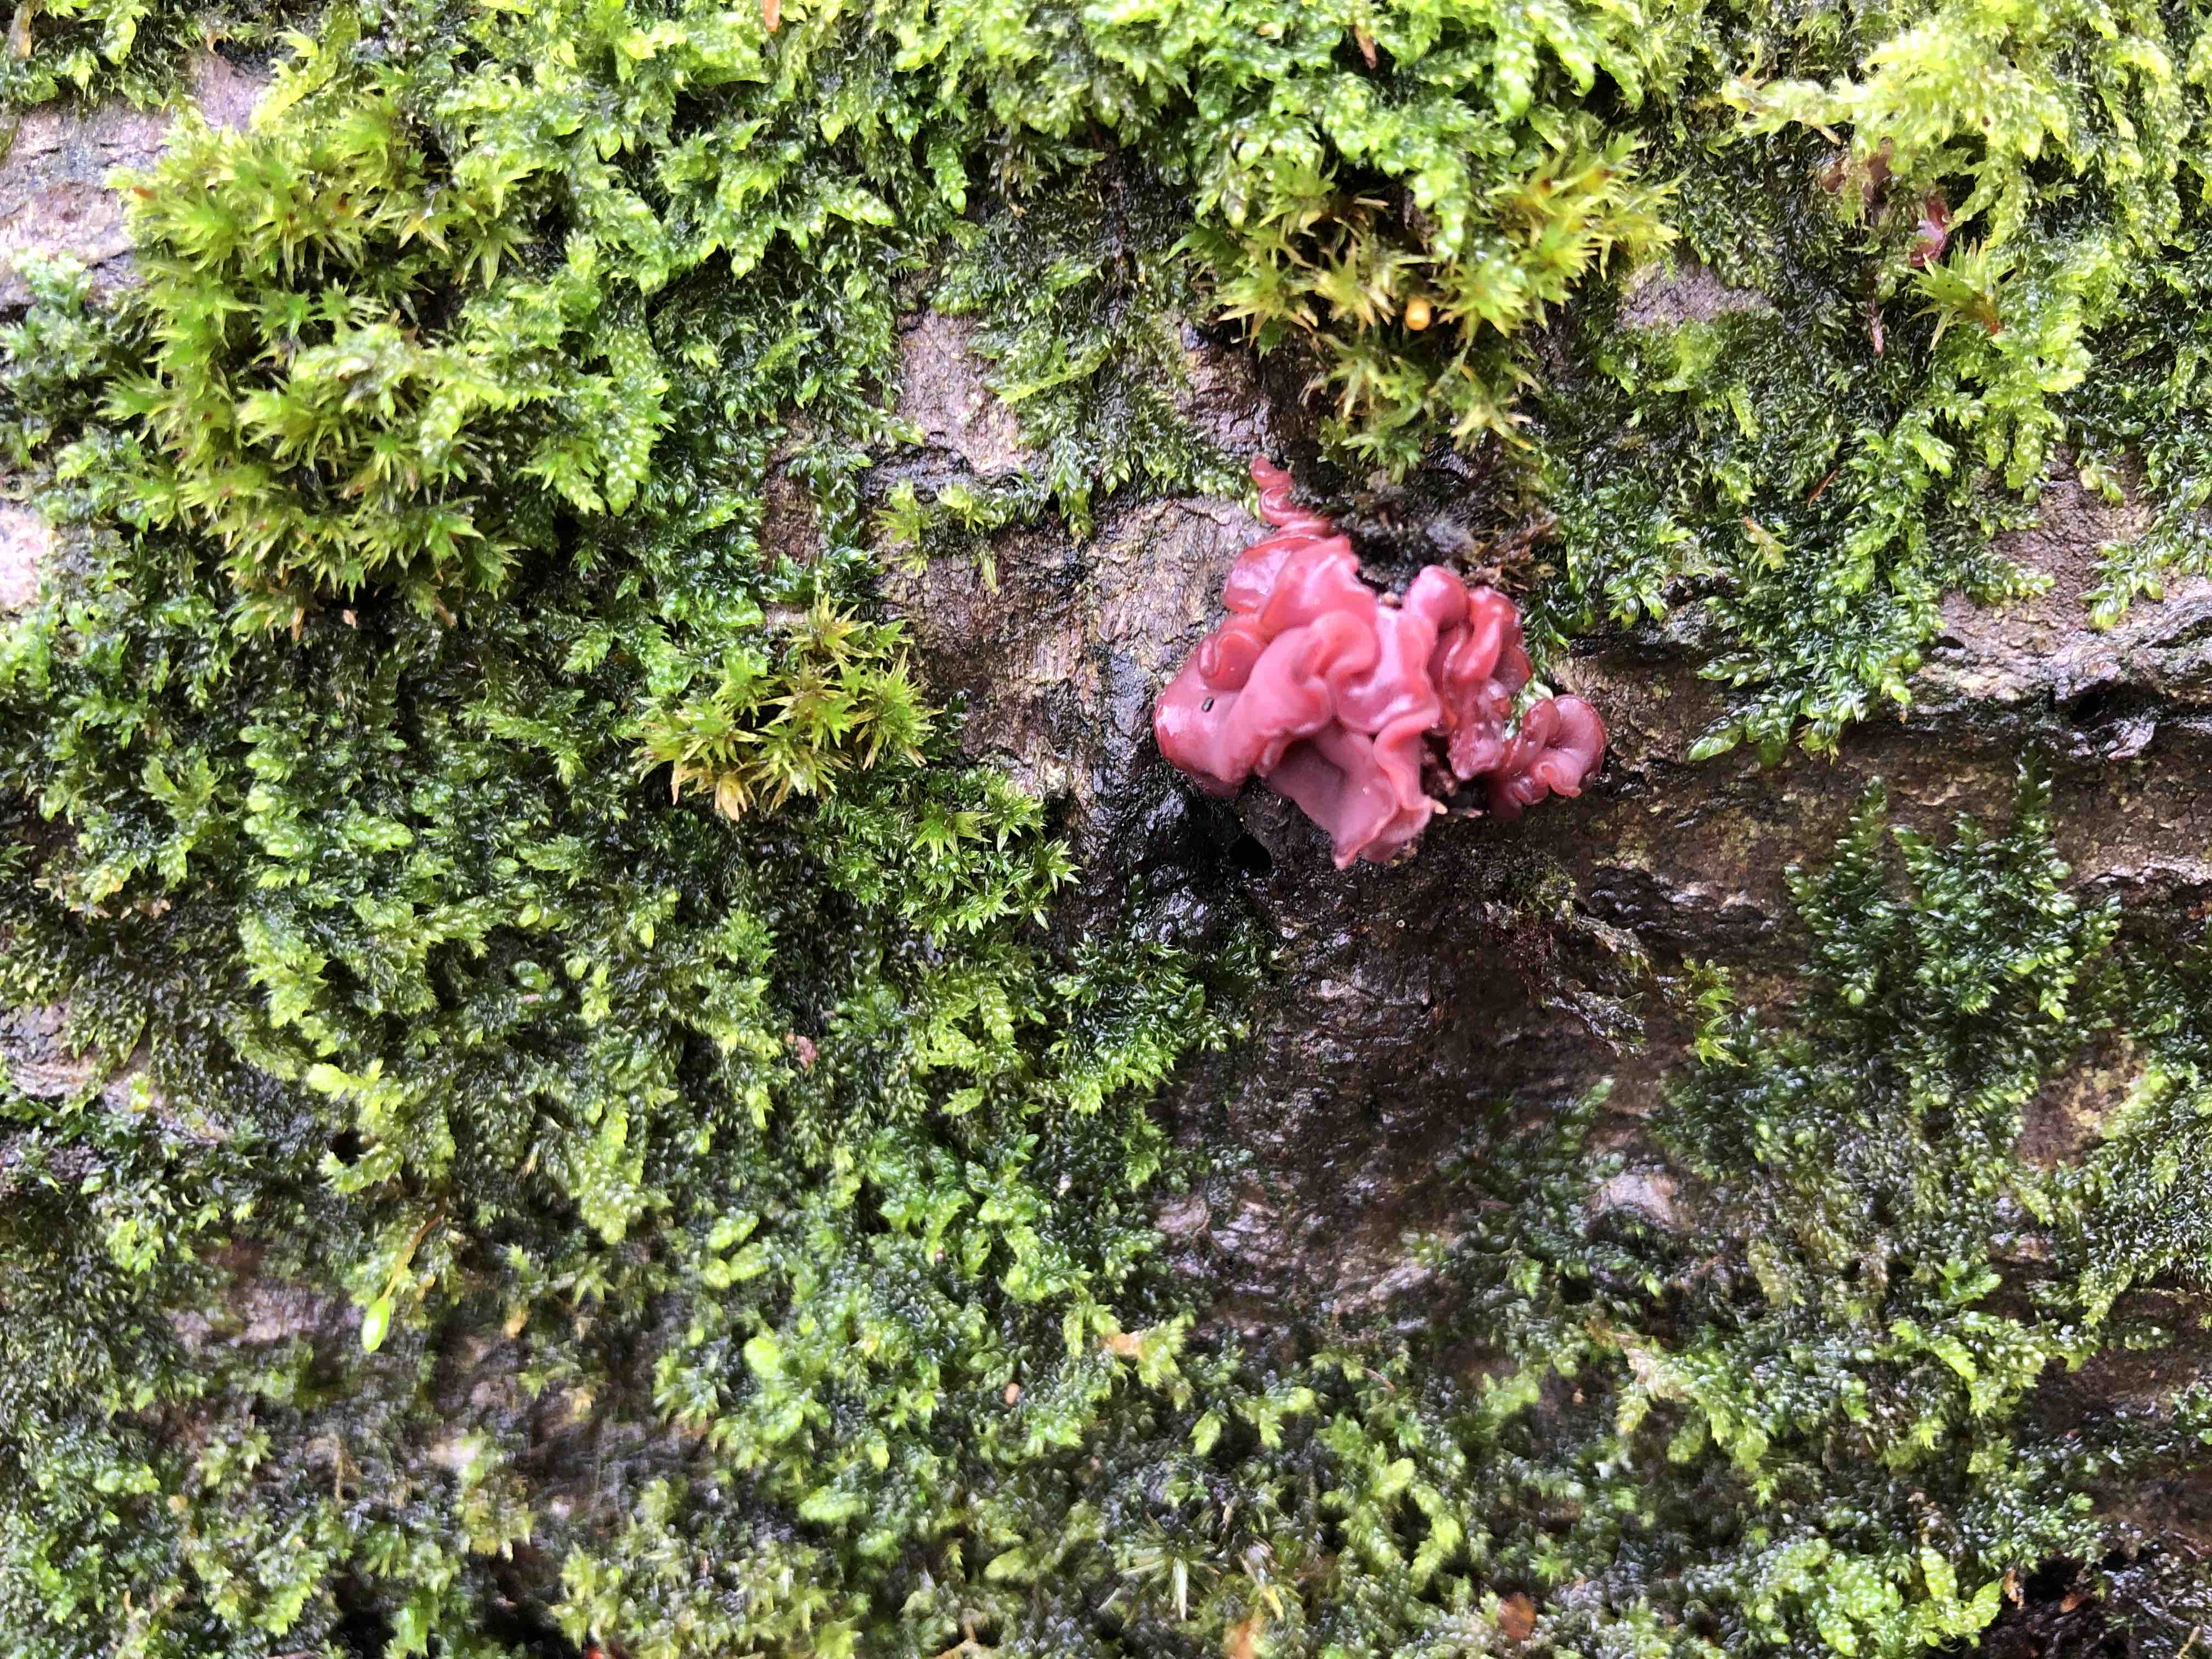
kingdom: Fungi
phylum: Ascomycota
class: Leotiomycetes
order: Helotiales
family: Gelatinodiscaceae
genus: Ascocoryne
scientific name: Ascocoryne cylichnium
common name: stor sejskive
